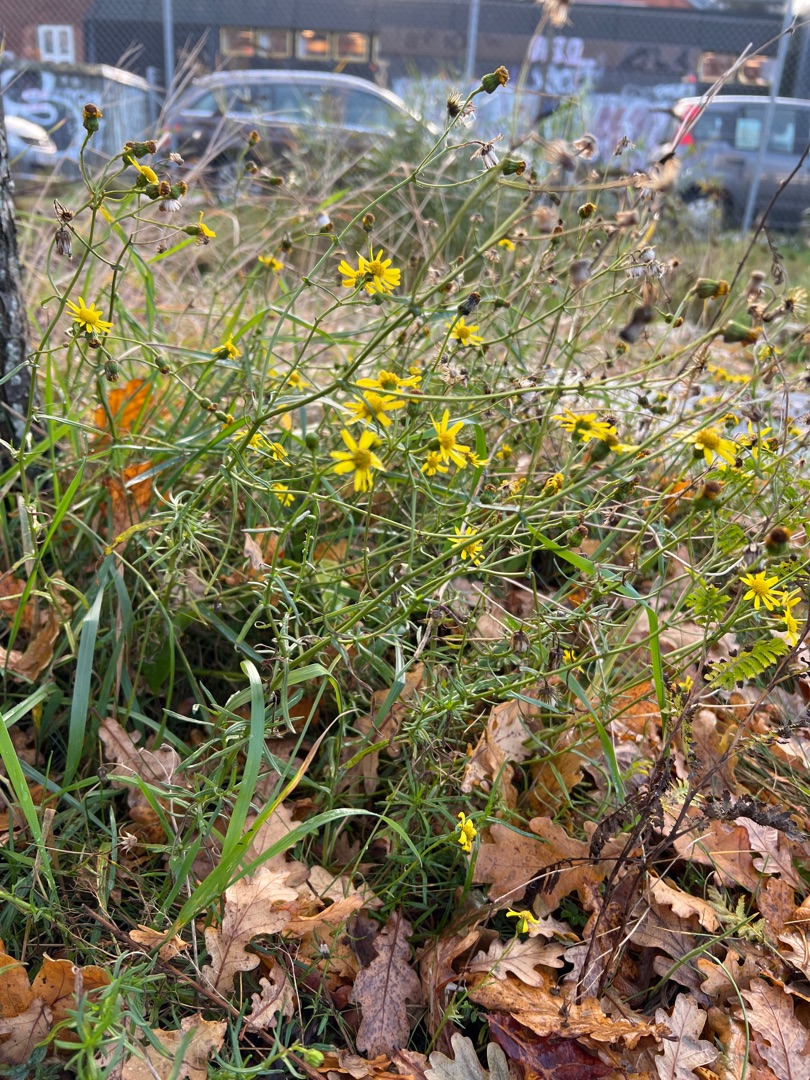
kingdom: Plantae
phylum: Tracheophyta
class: Magnoliopsida
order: Asterales
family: Asteraceae
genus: Senecio
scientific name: Senecio inaequidens
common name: Smalbladet brandbæger
